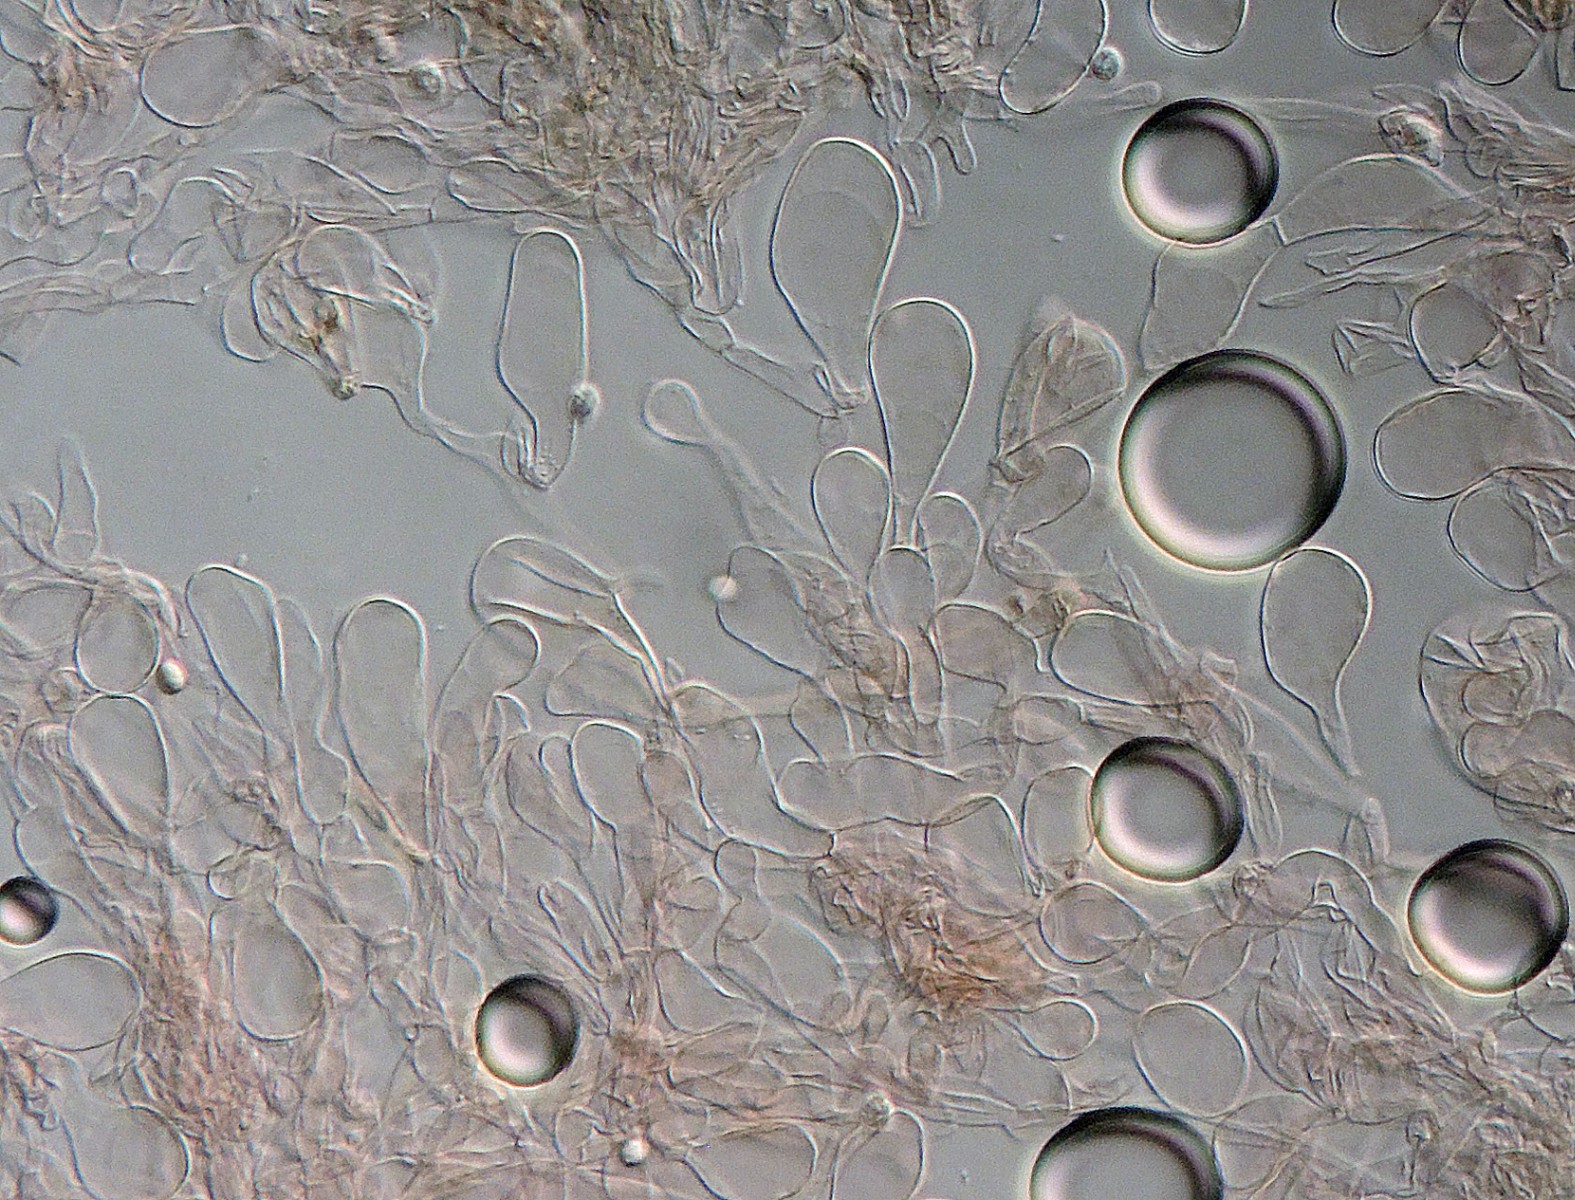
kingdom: Fungi
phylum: Basidiomycota
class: Agaricomycetes
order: Agaricales
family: Clavariaceae
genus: Hodophilus
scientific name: Hodophilus
